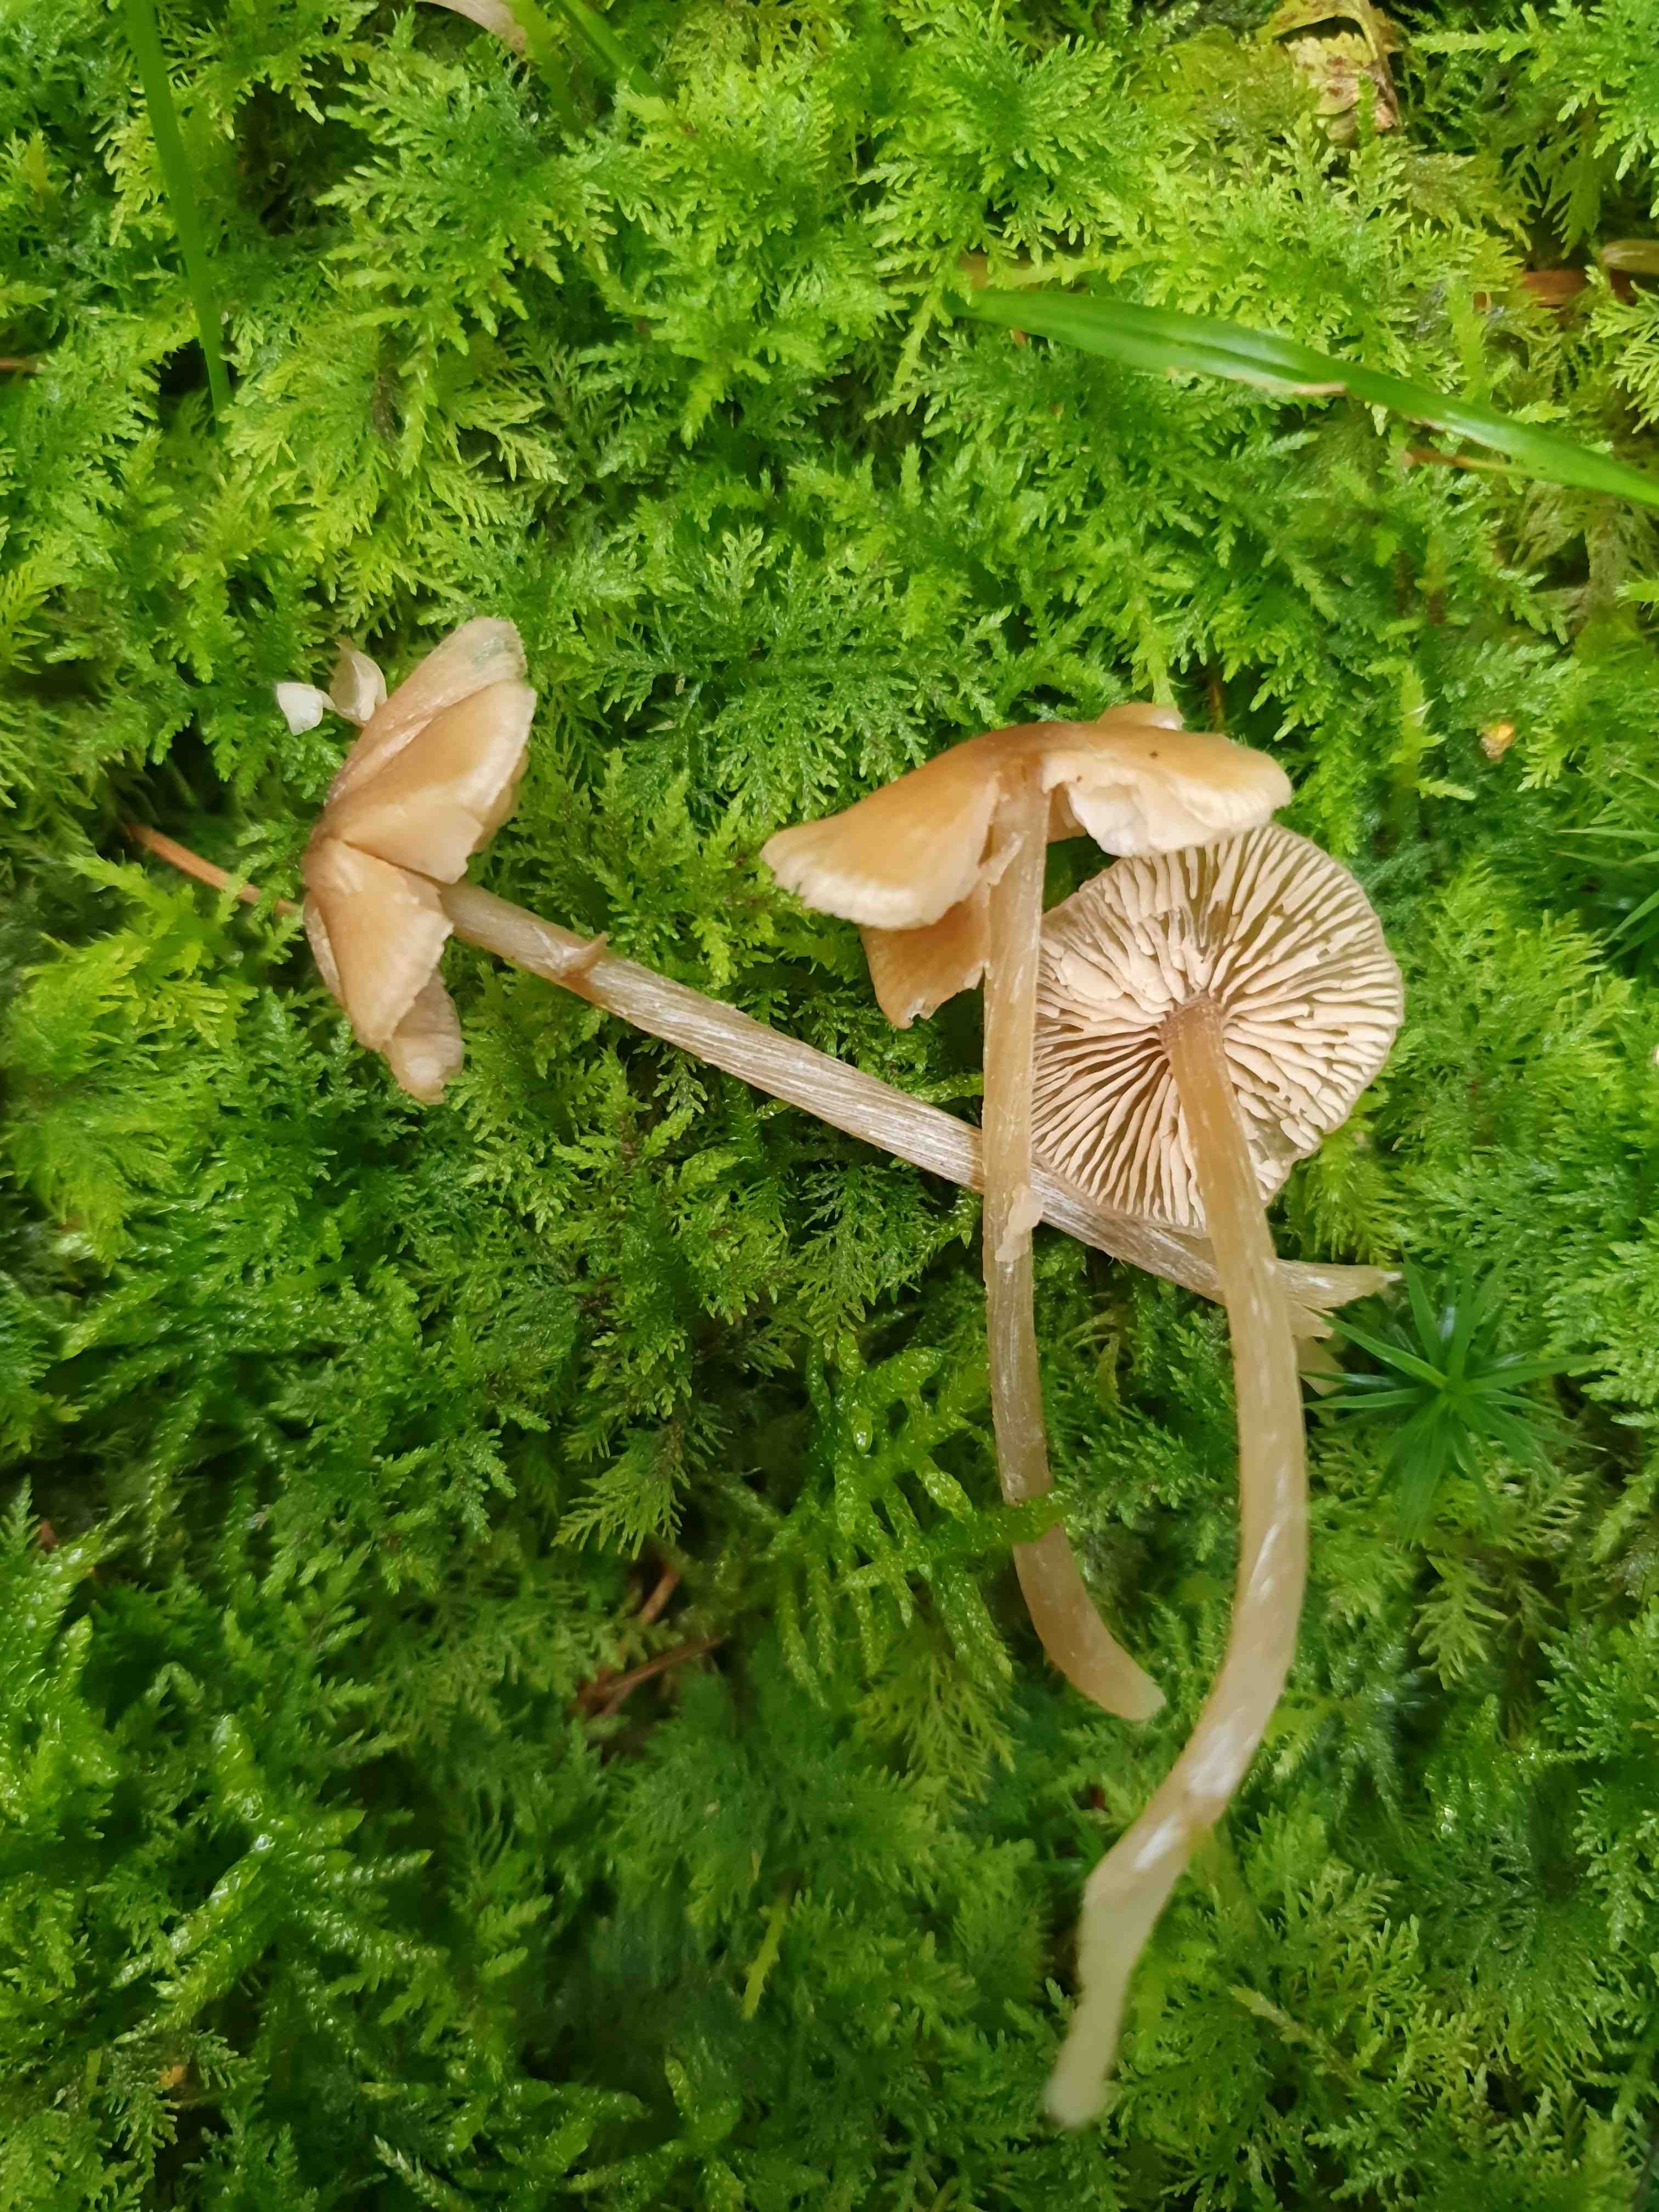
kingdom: Fungi
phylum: Basidiomycota
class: Agaricomycetes
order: Agaricales
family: Entolomataceae
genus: Entoloma
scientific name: Entoloma cetratum
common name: voks-rødblad
